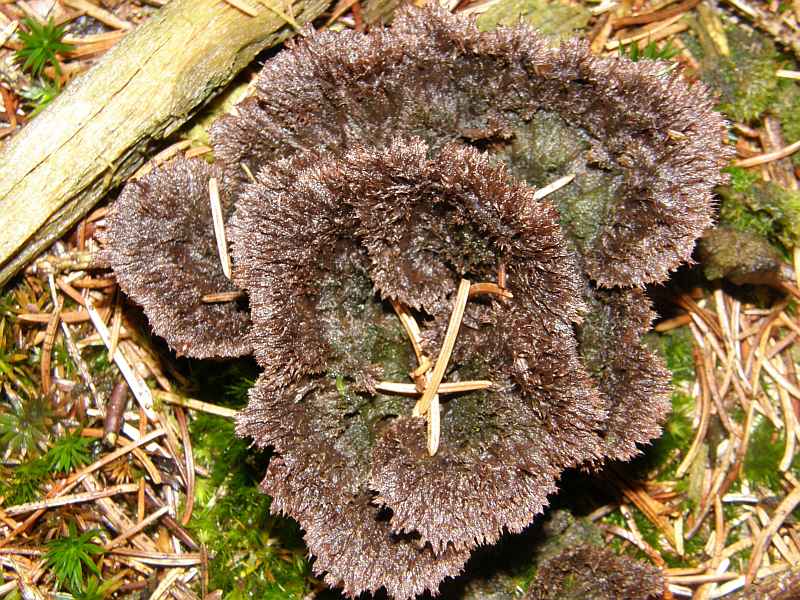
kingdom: Fungi
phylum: Basidiomycota
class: Agaricomycetes
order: Thelephorales
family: Thelephoraceae
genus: Thelephora
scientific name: Thelephora terrestris
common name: fliget frynsesvamp
